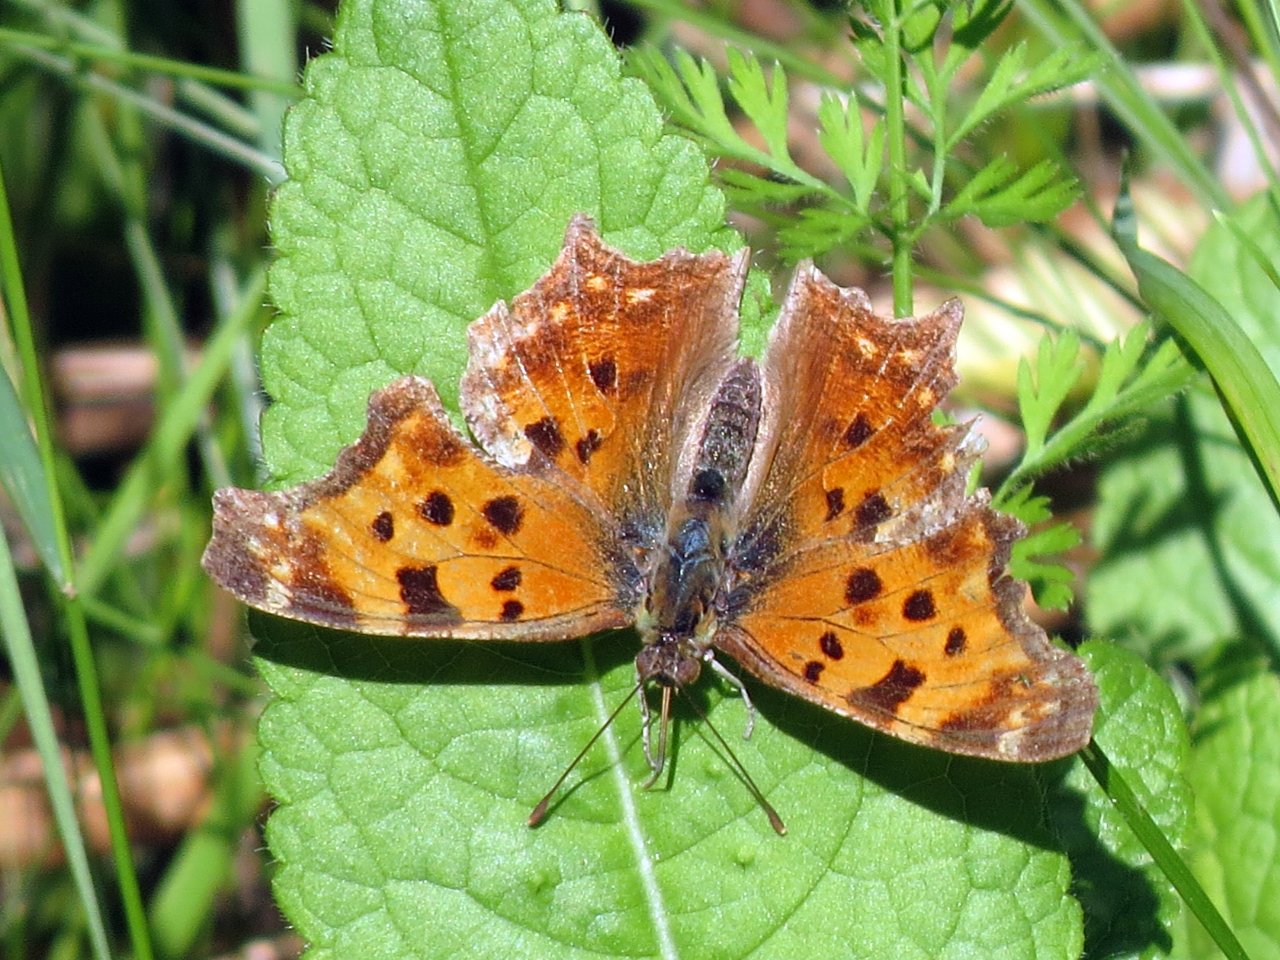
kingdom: Animalia
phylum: Arthropoda
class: Insecta
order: Lepidoptera
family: Nymphalidae
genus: Polygonia
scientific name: Polygonia comma
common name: Eastern Comma
